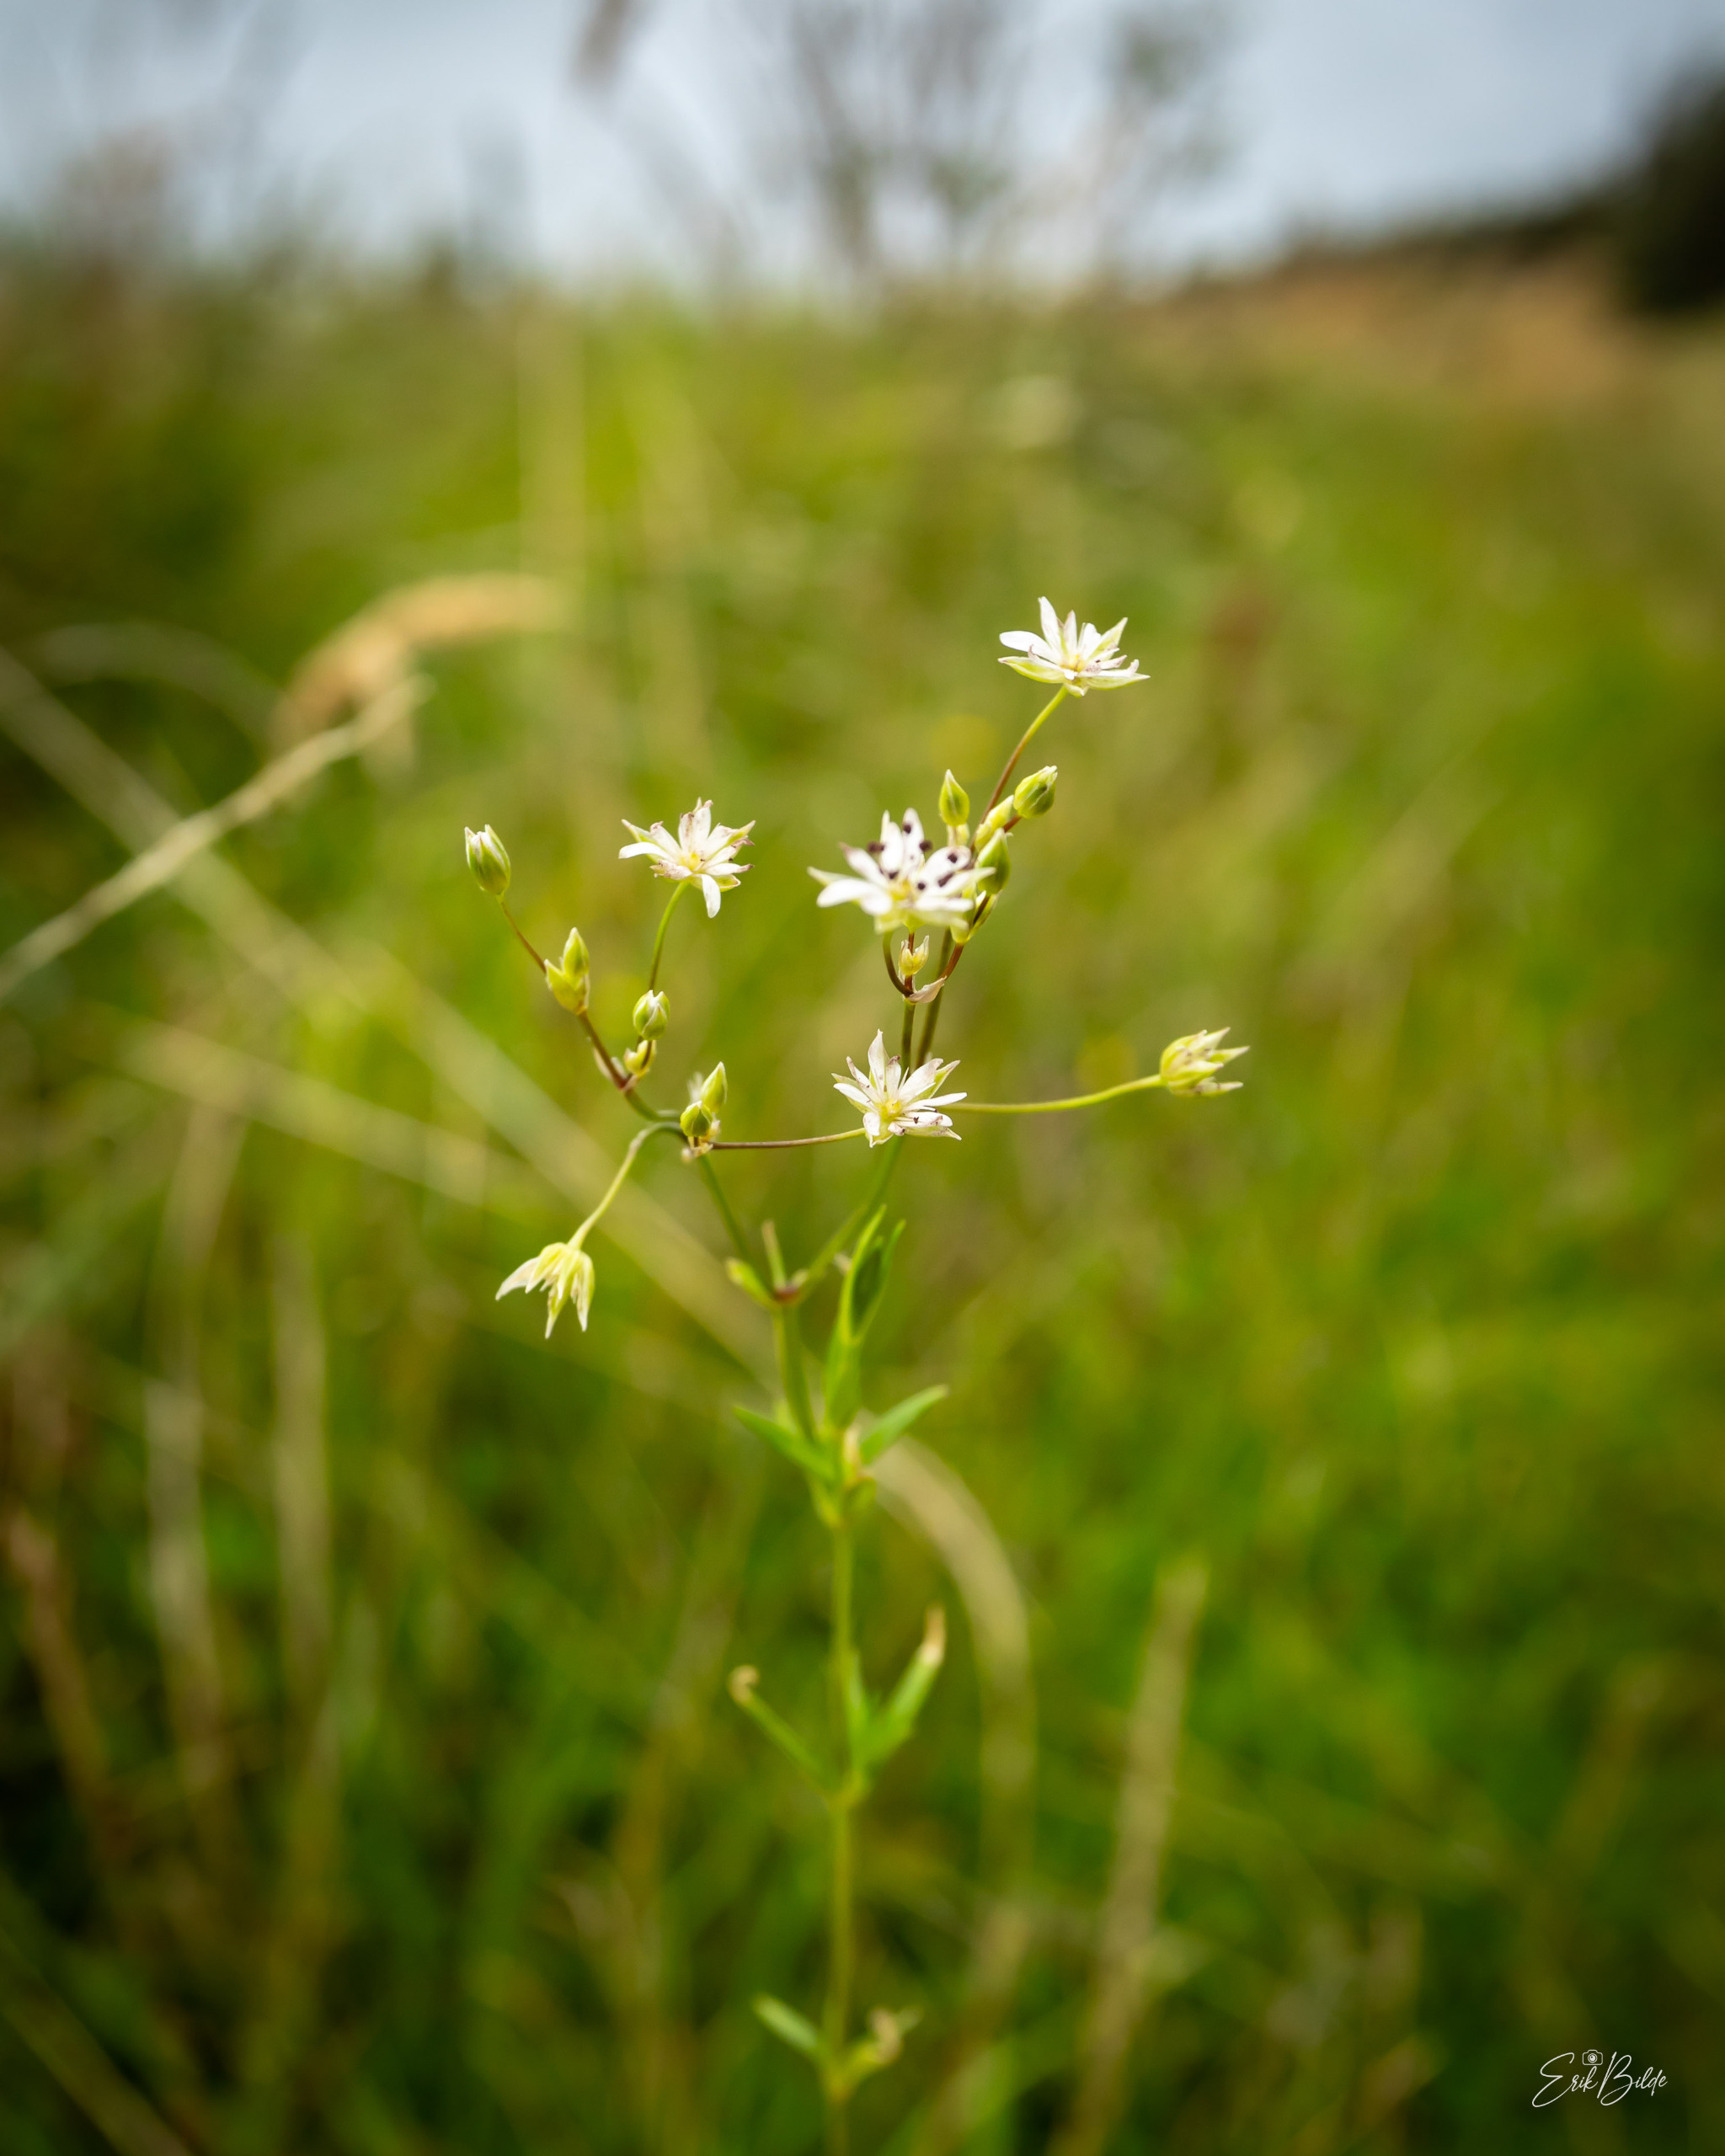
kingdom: Plantae
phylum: Tracheophyta
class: Magnoliopsida
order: Caryophyllales
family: Caryophyllaceae
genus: Stellaria
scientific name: Stellaria graminea
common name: Græsbladet fladstjerne
